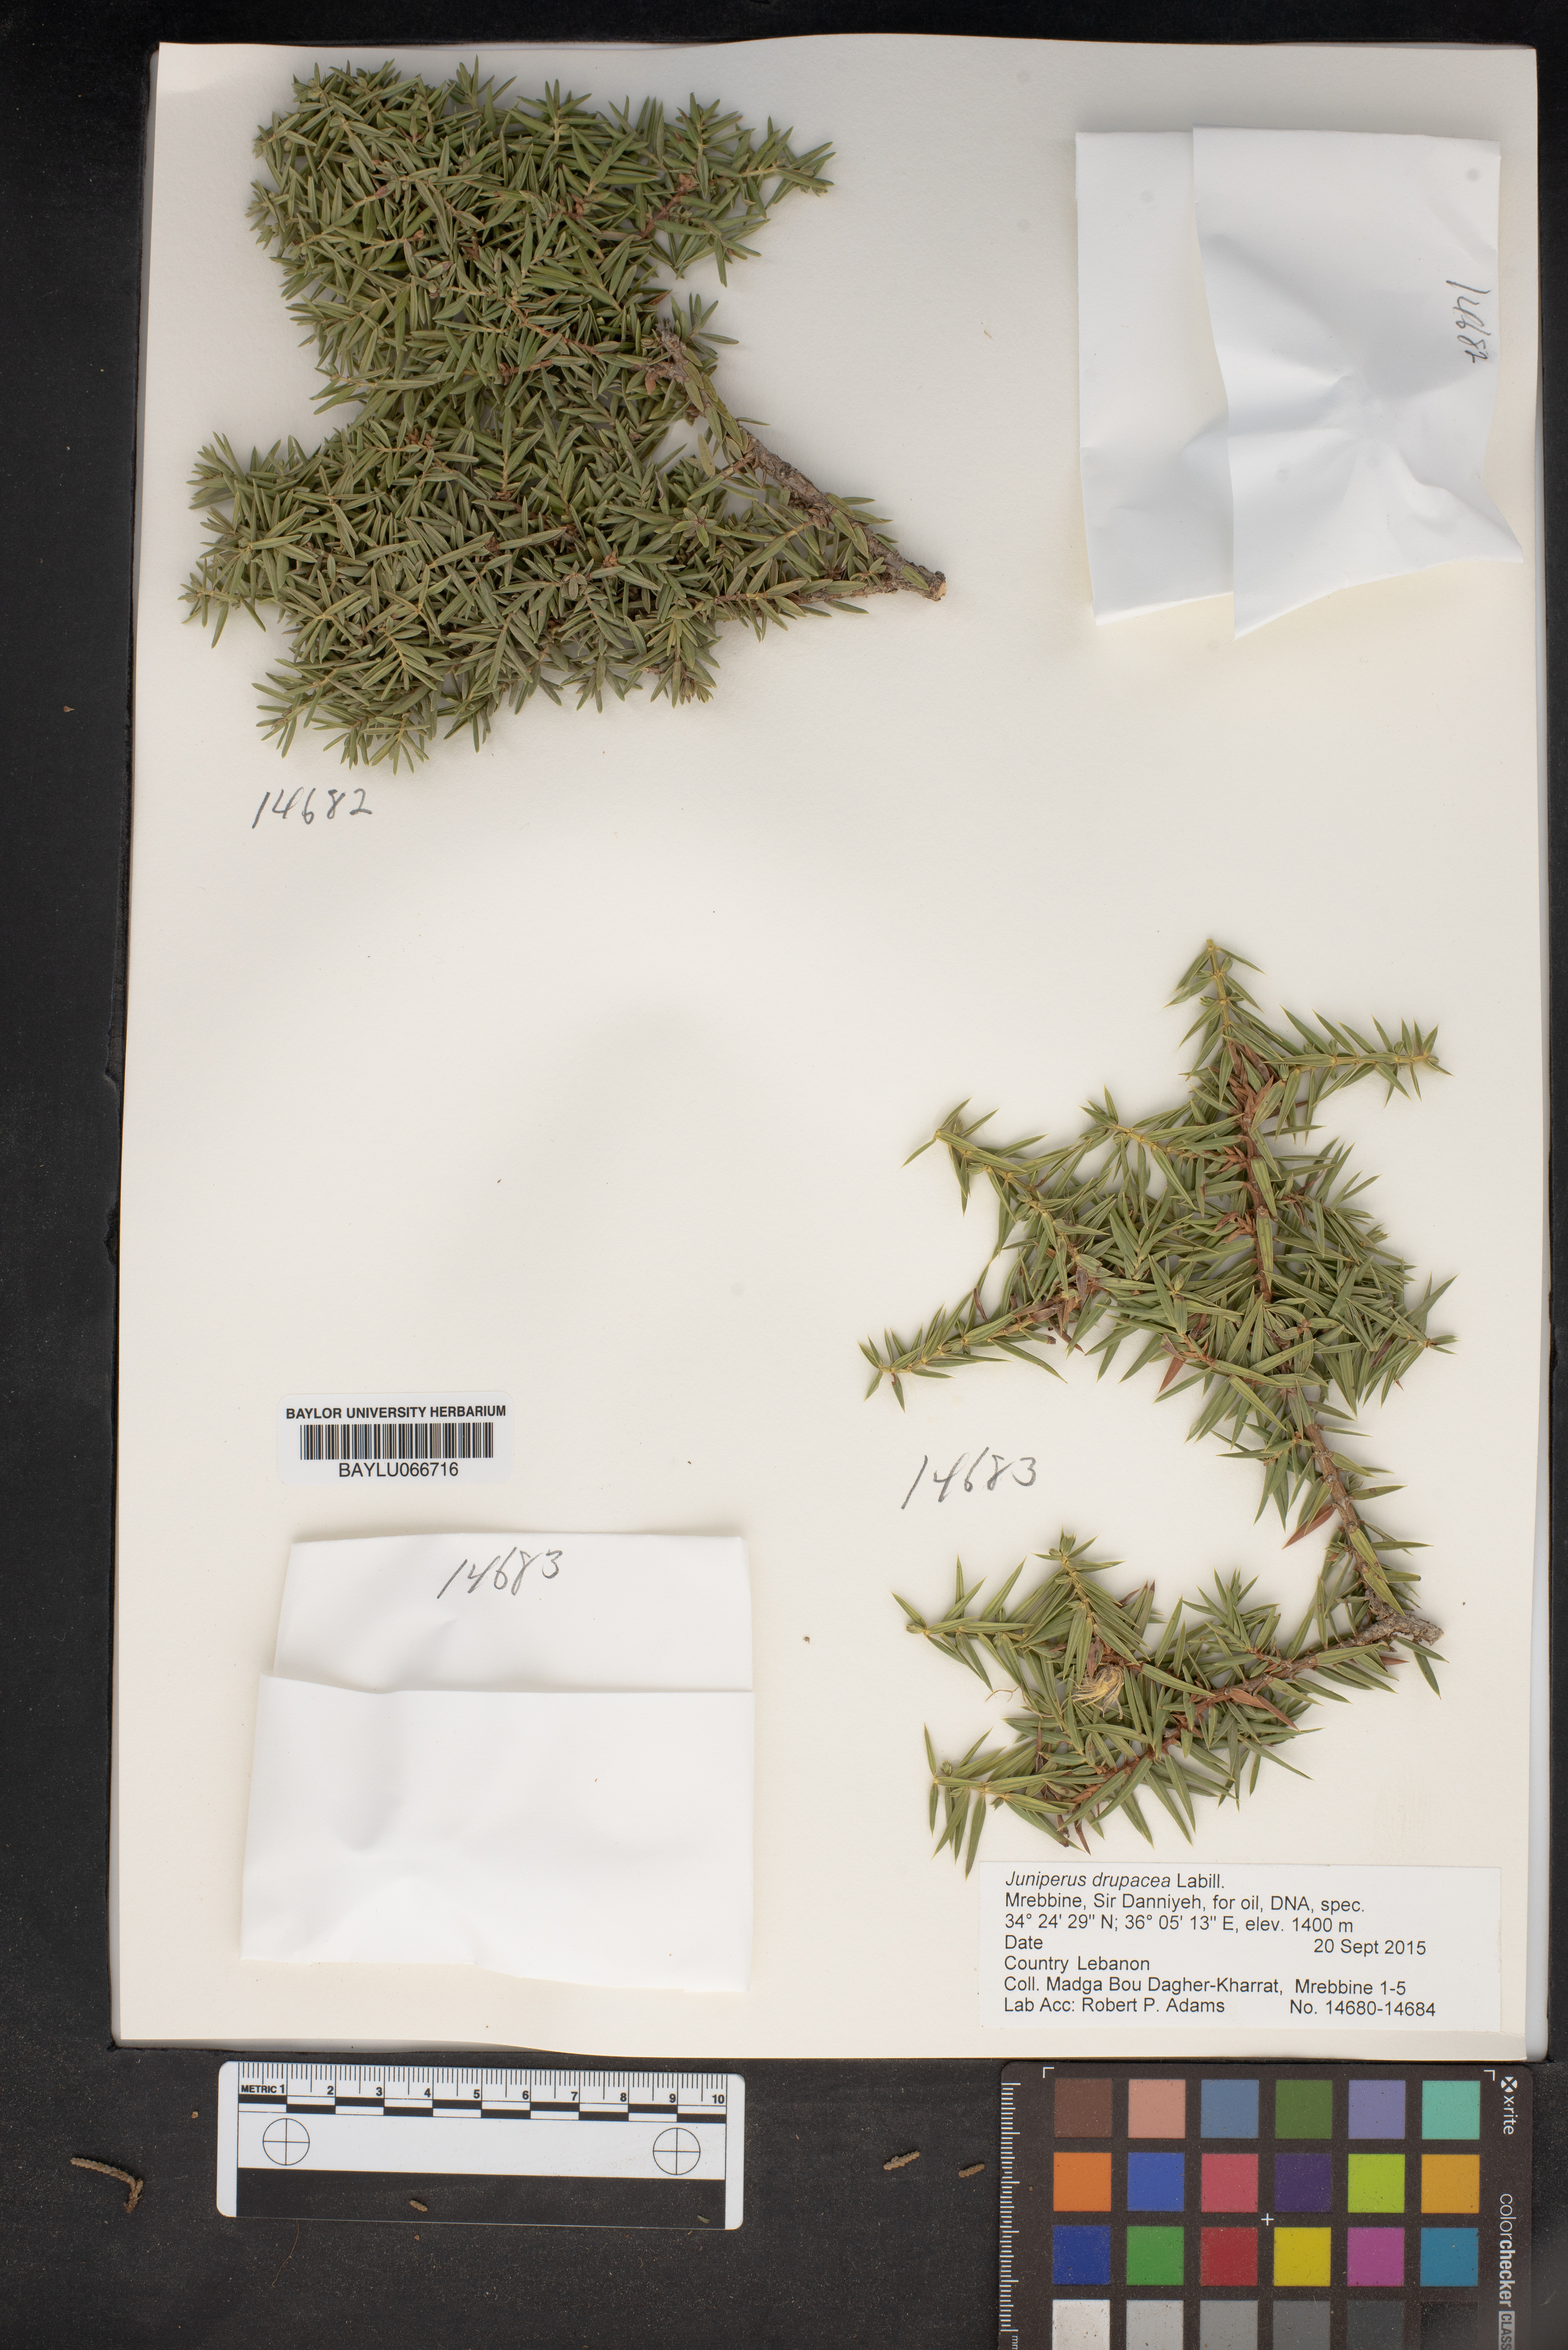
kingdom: Plantae
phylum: Tracheophyta
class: Pinopsida
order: Pinales
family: Cupressaceae
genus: Juniperus
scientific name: Juniperus drupacea
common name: Syrian juniper
